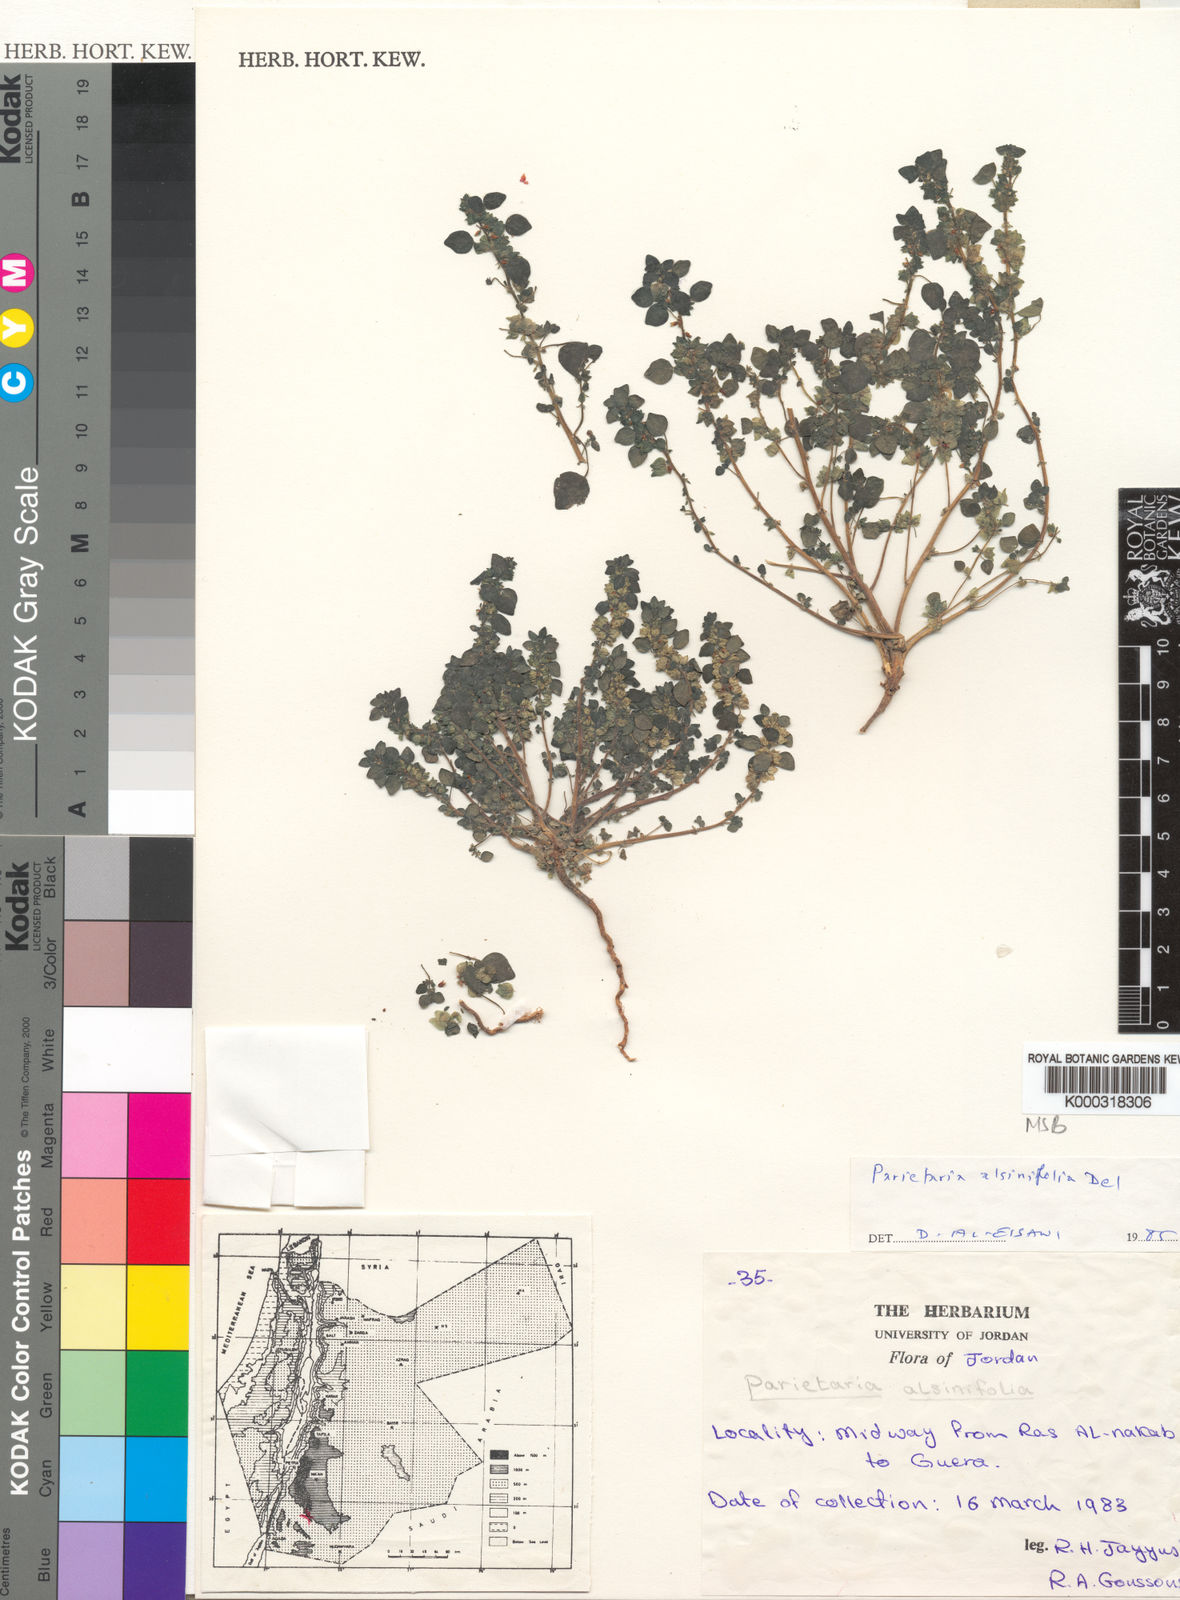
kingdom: Plantae
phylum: Tracheophyta
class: Magnoliopsida
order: Rosales
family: Urticaceae
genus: Parietaria
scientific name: Parietaria
